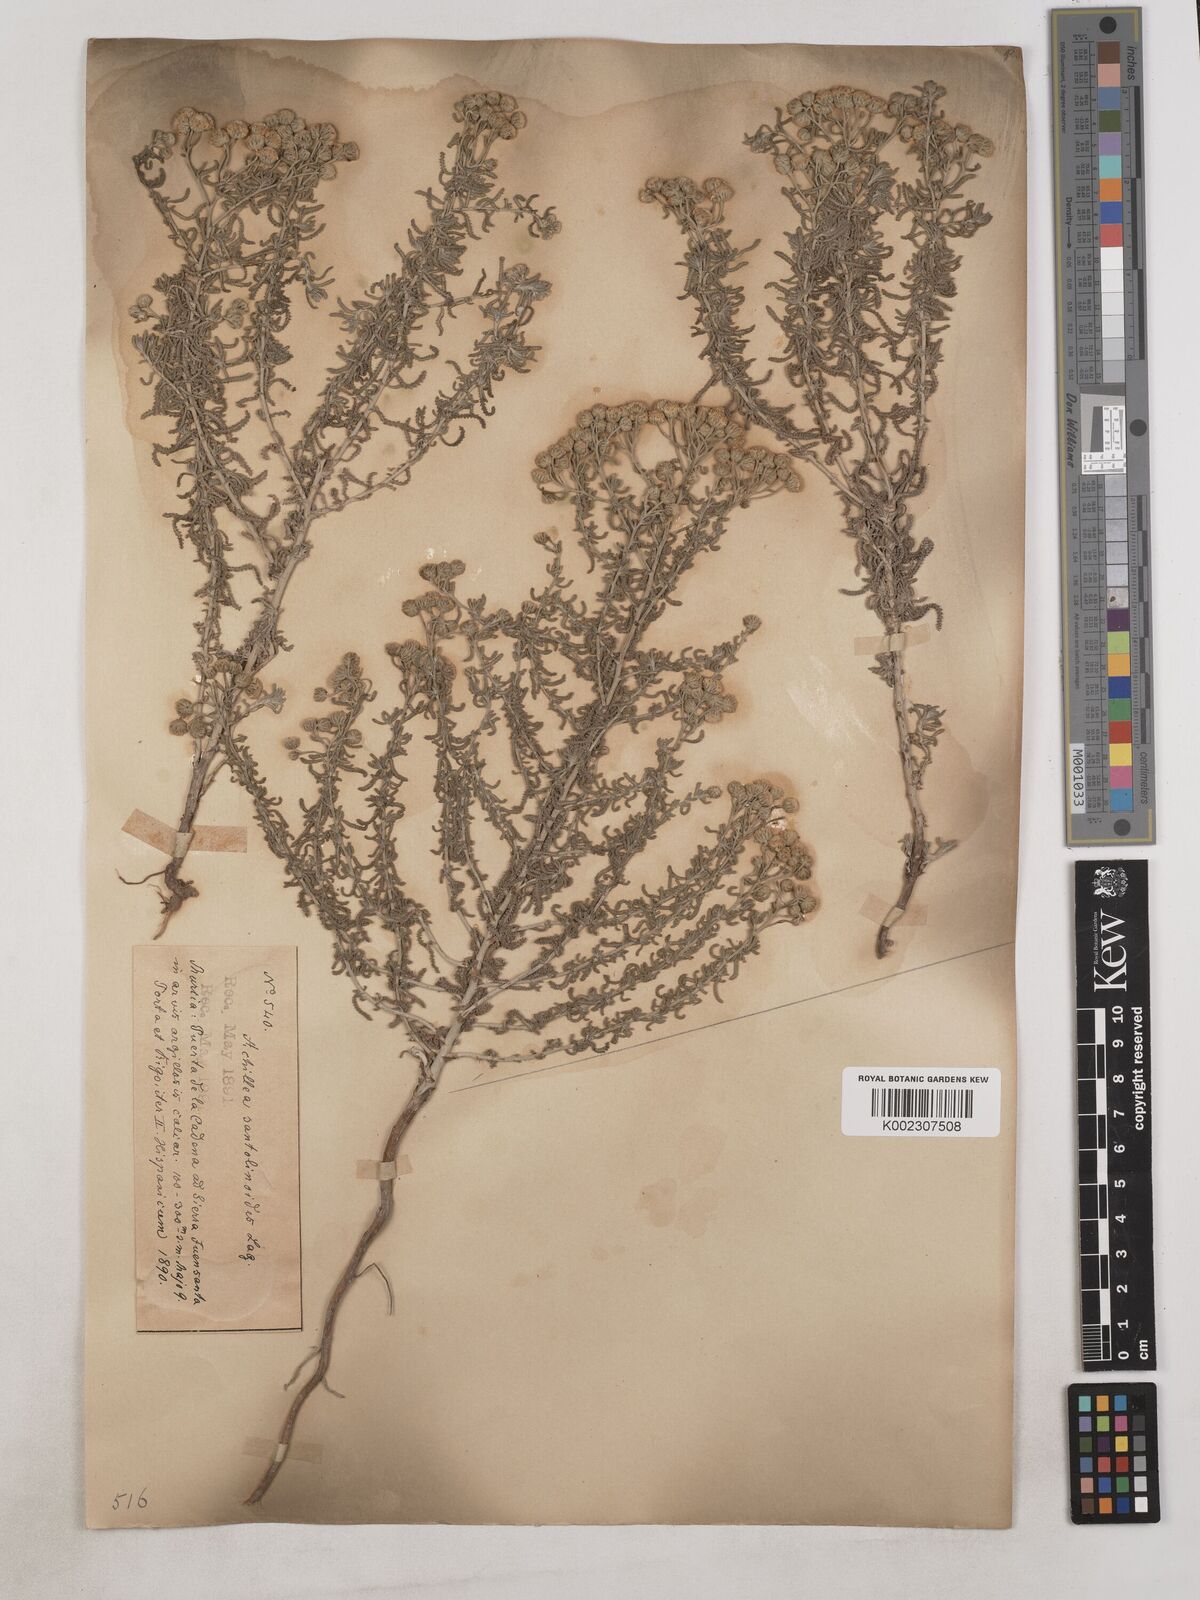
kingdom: Plantae
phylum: Tracheophyta
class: Magnoliopsida
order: Asterales
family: Asteraceae
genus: Achillea
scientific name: Achillea santolinoides
